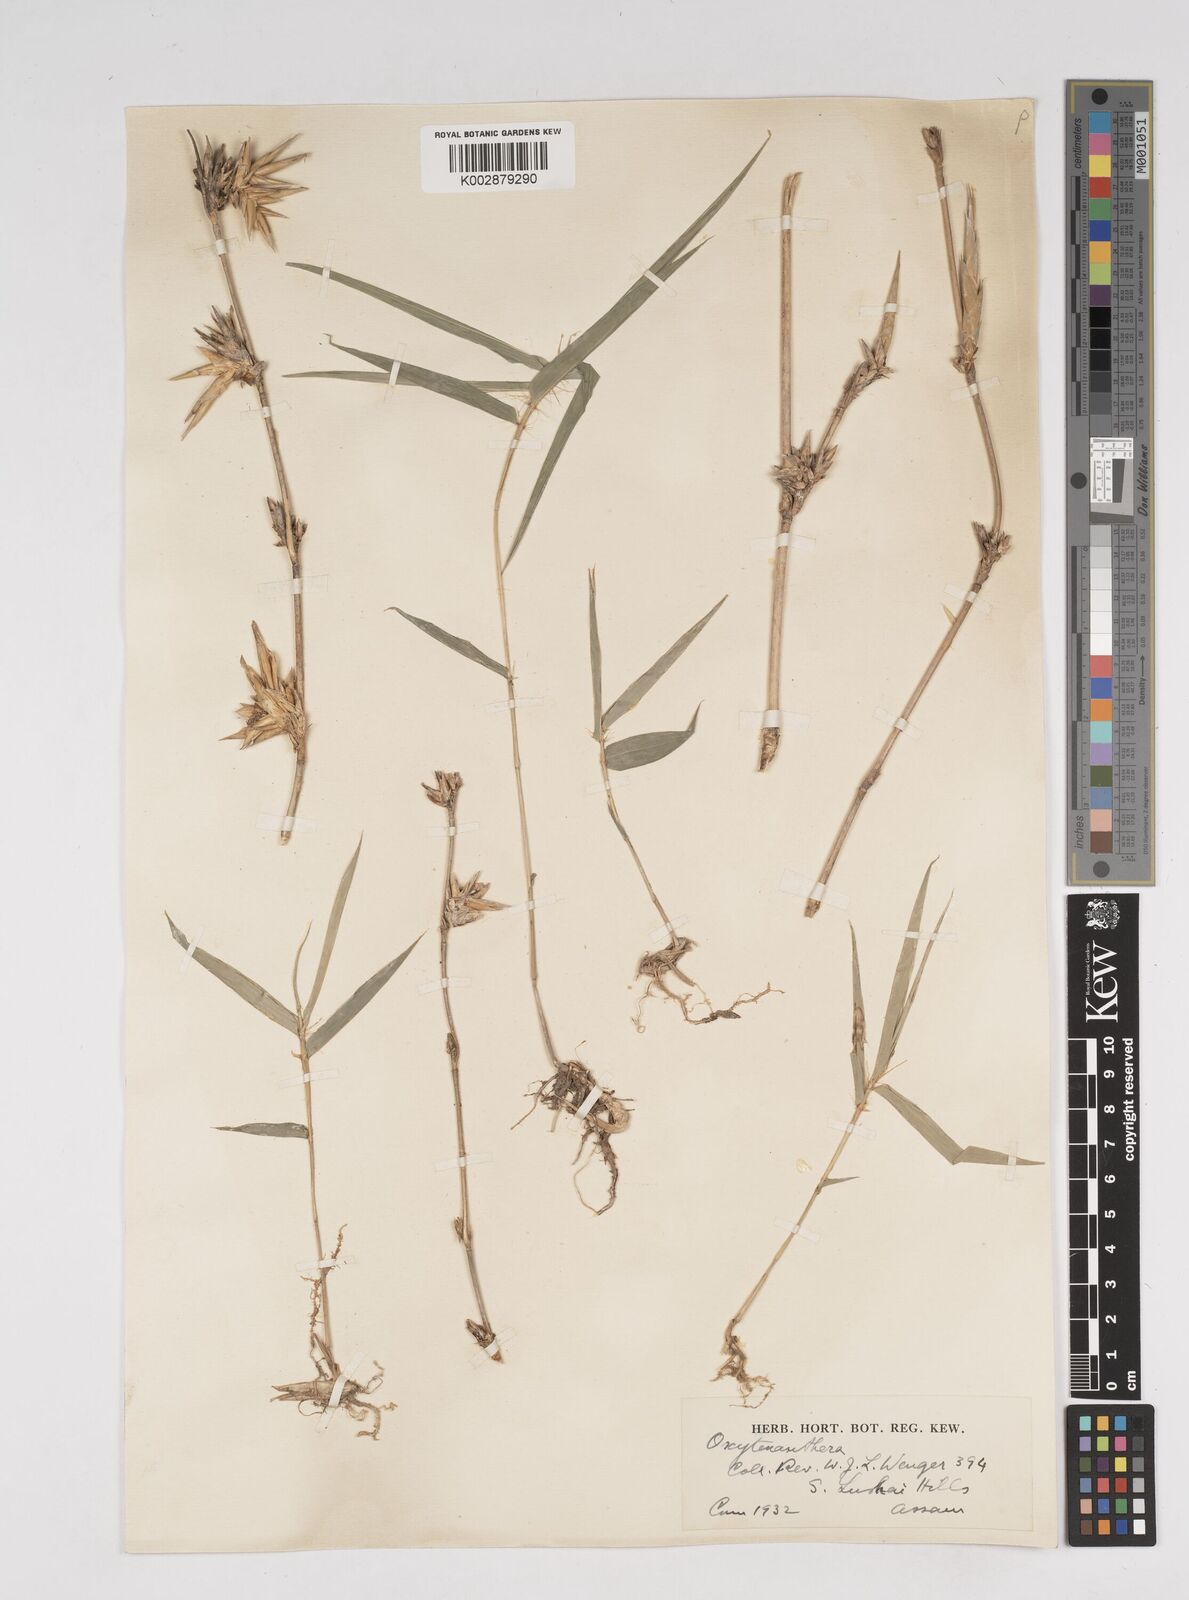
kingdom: Plantae
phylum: Tracheophyta
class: Liliopsida
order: Poales
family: Poaceae
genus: Dendrocalamus
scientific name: Dendrocalamus
